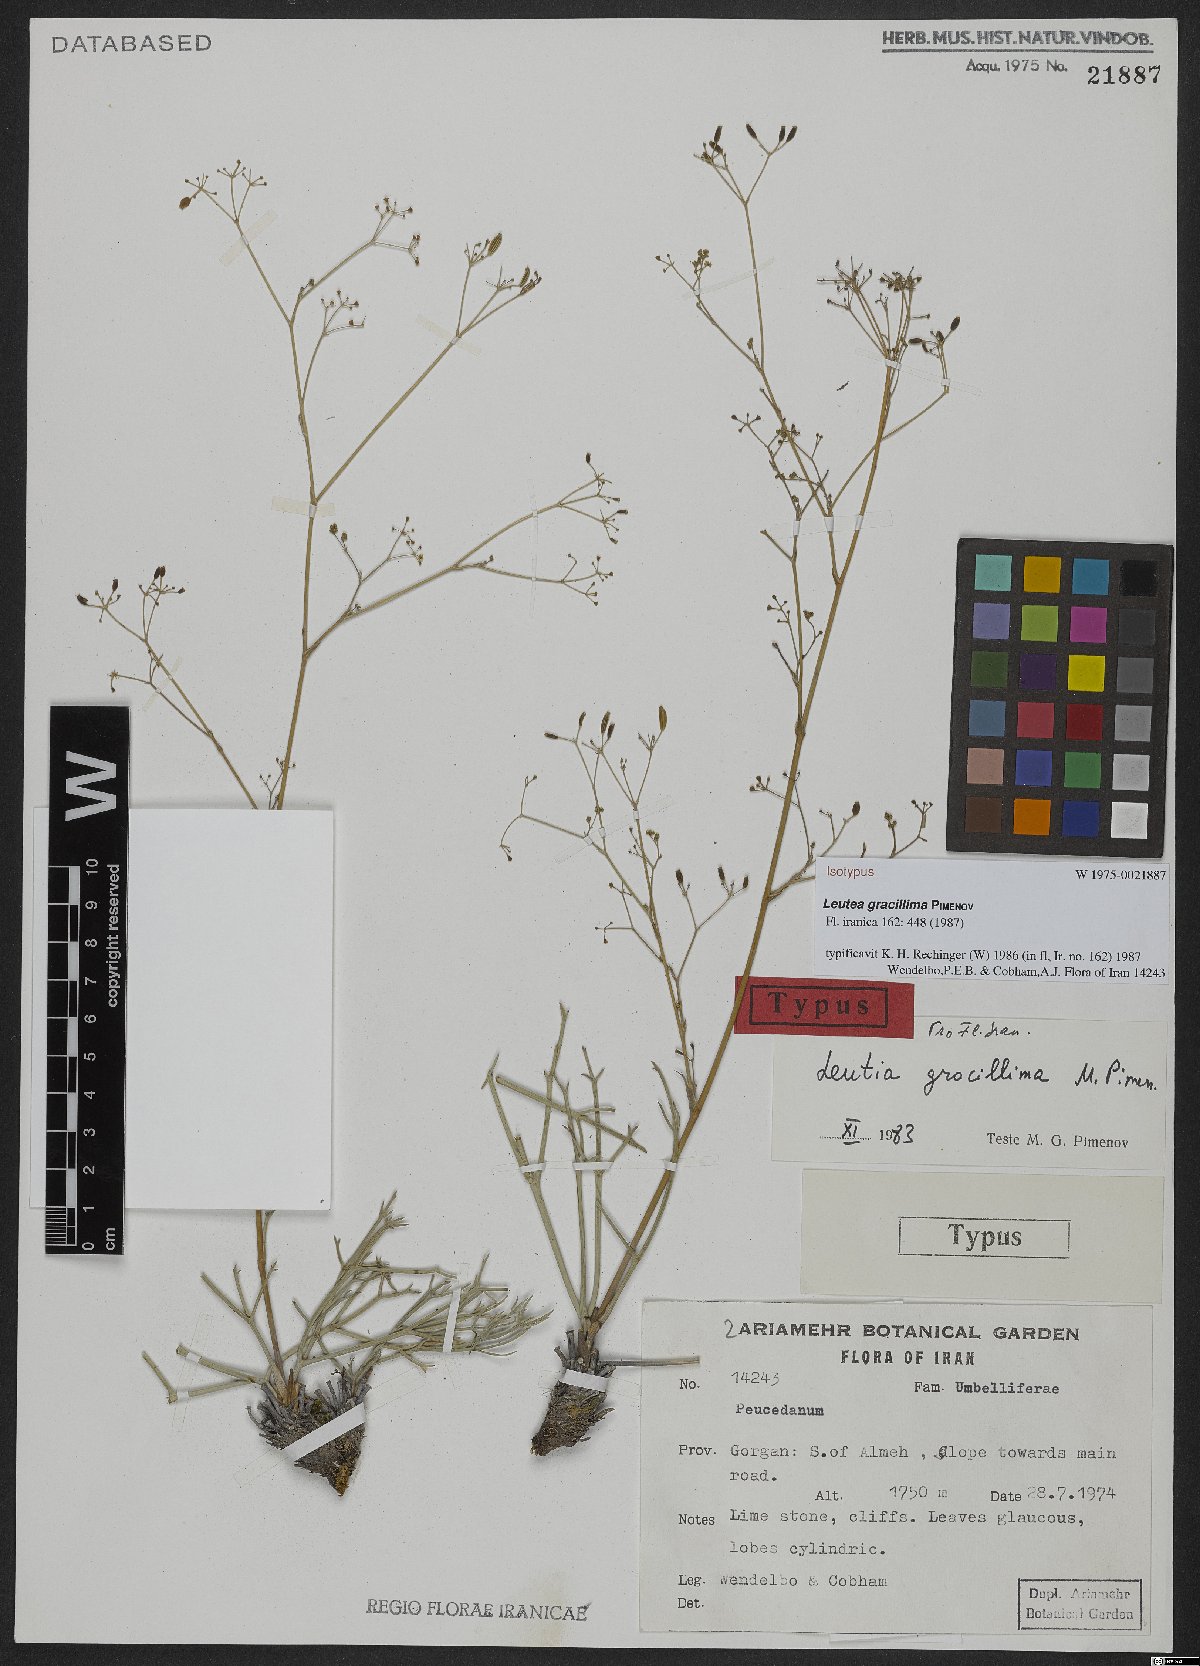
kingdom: Plantae
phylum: Tracheophyta
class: Magnoliopsida
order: Apiales
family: Apiaceae
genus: Leutea
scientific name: Leutea gracillima
